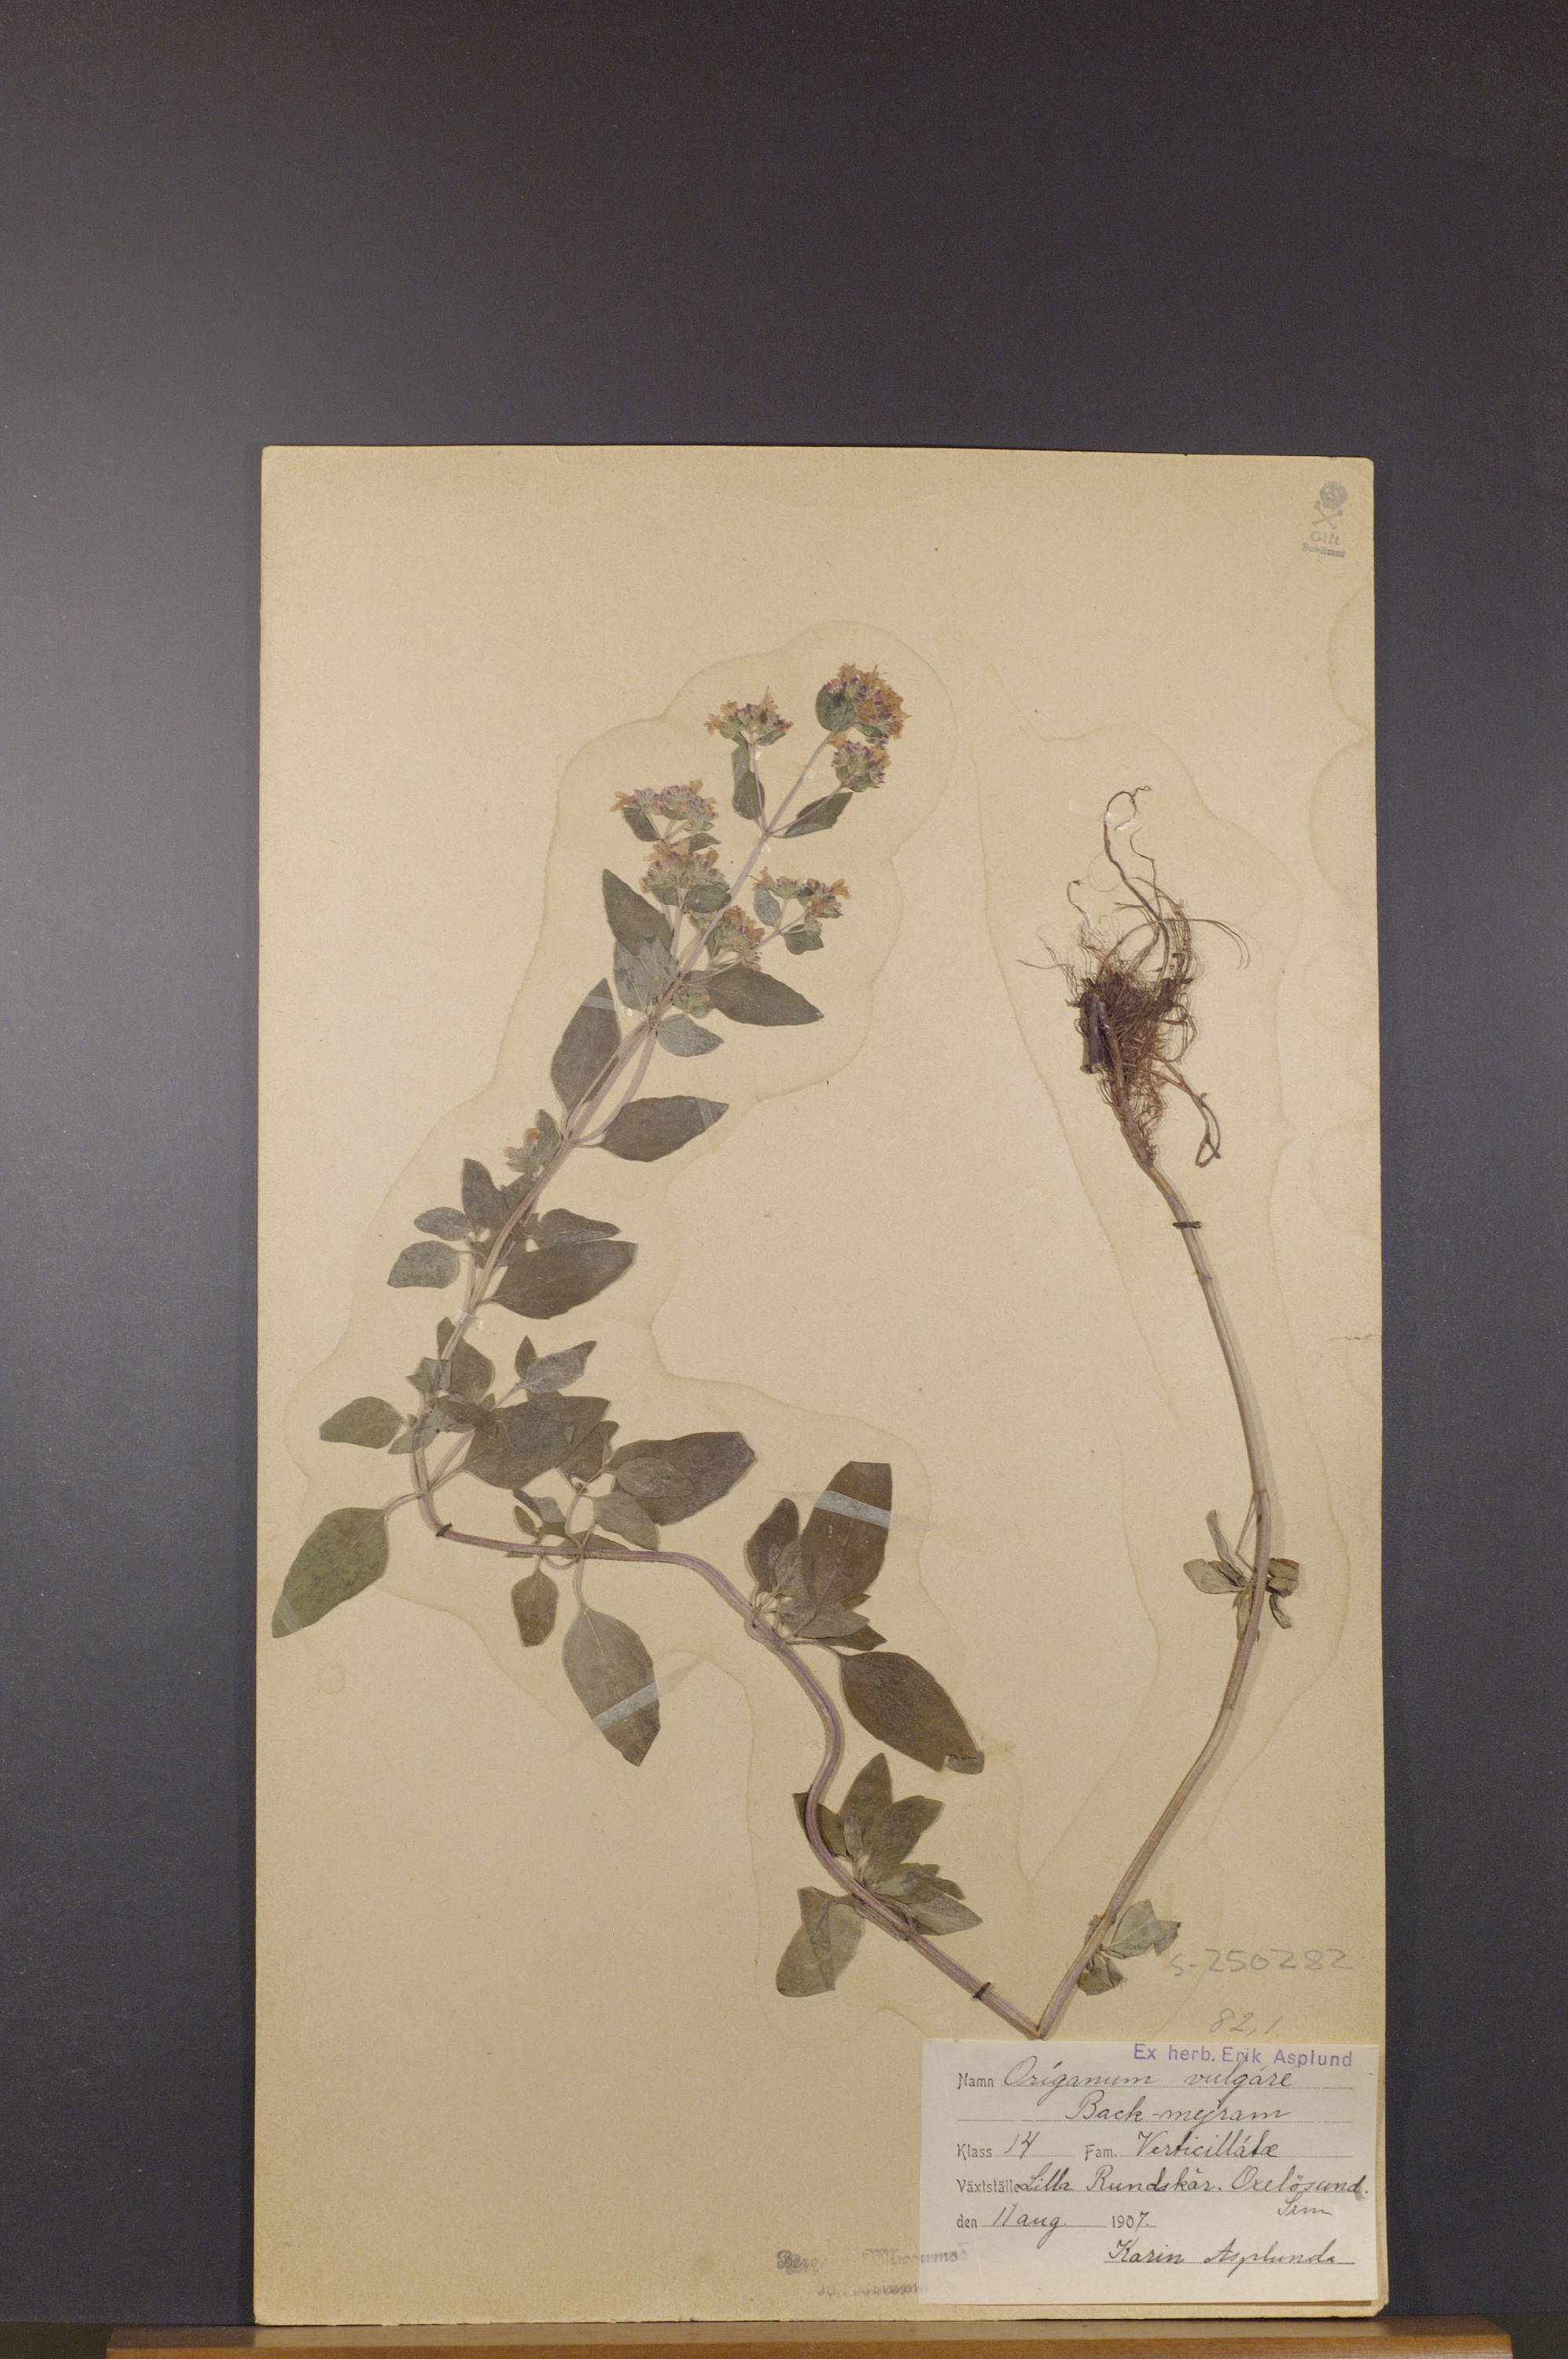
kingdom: Plantae
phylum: Tracheophyta
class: Magnoliopsida
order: Lamiales
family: Lamiaceae
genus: Origanum
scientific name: Origanum vulgare
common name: Wild marjoram
